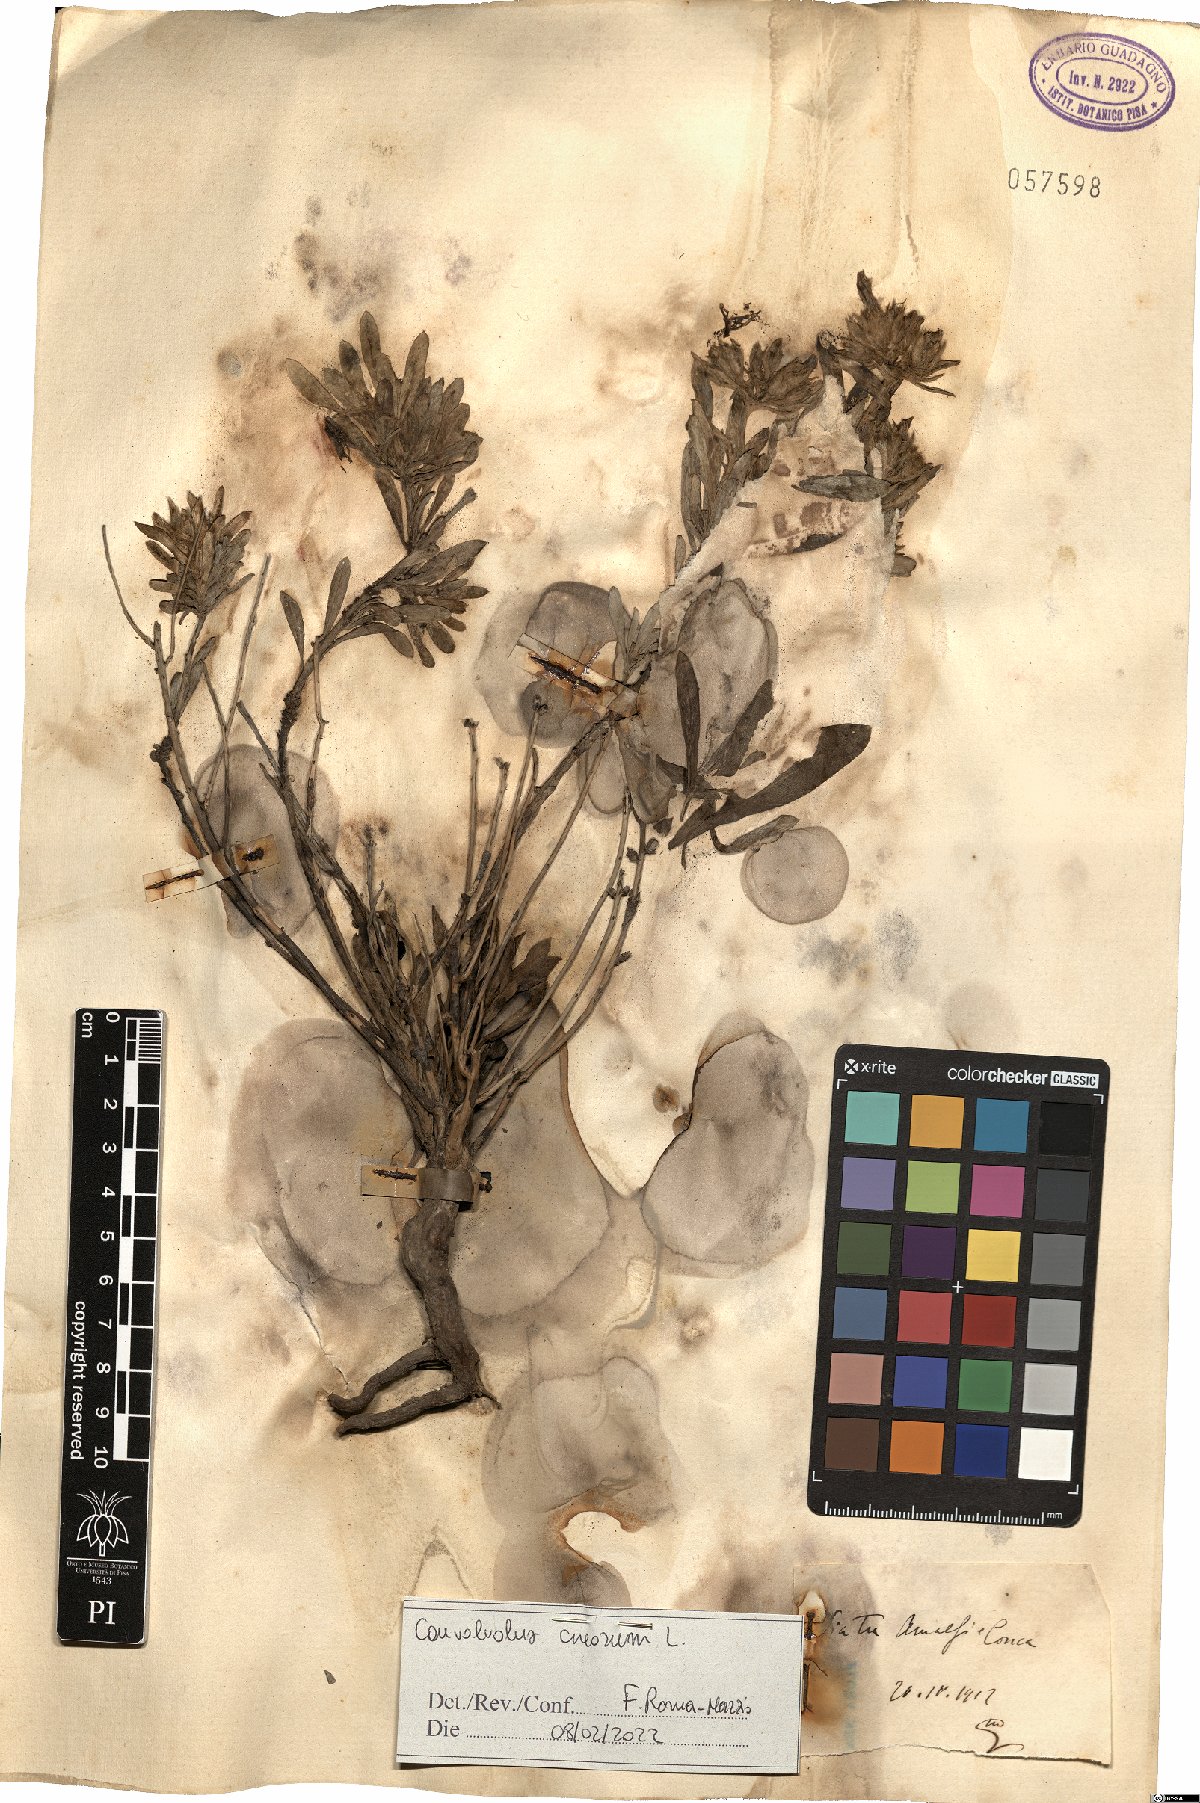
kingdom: Plantae
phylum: Tracheophyta
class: Magnoliopsida
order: Solanales
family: Convolvulaceae
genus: Convolvulus
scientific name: Convolvulus cneorum
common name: Silverbush
